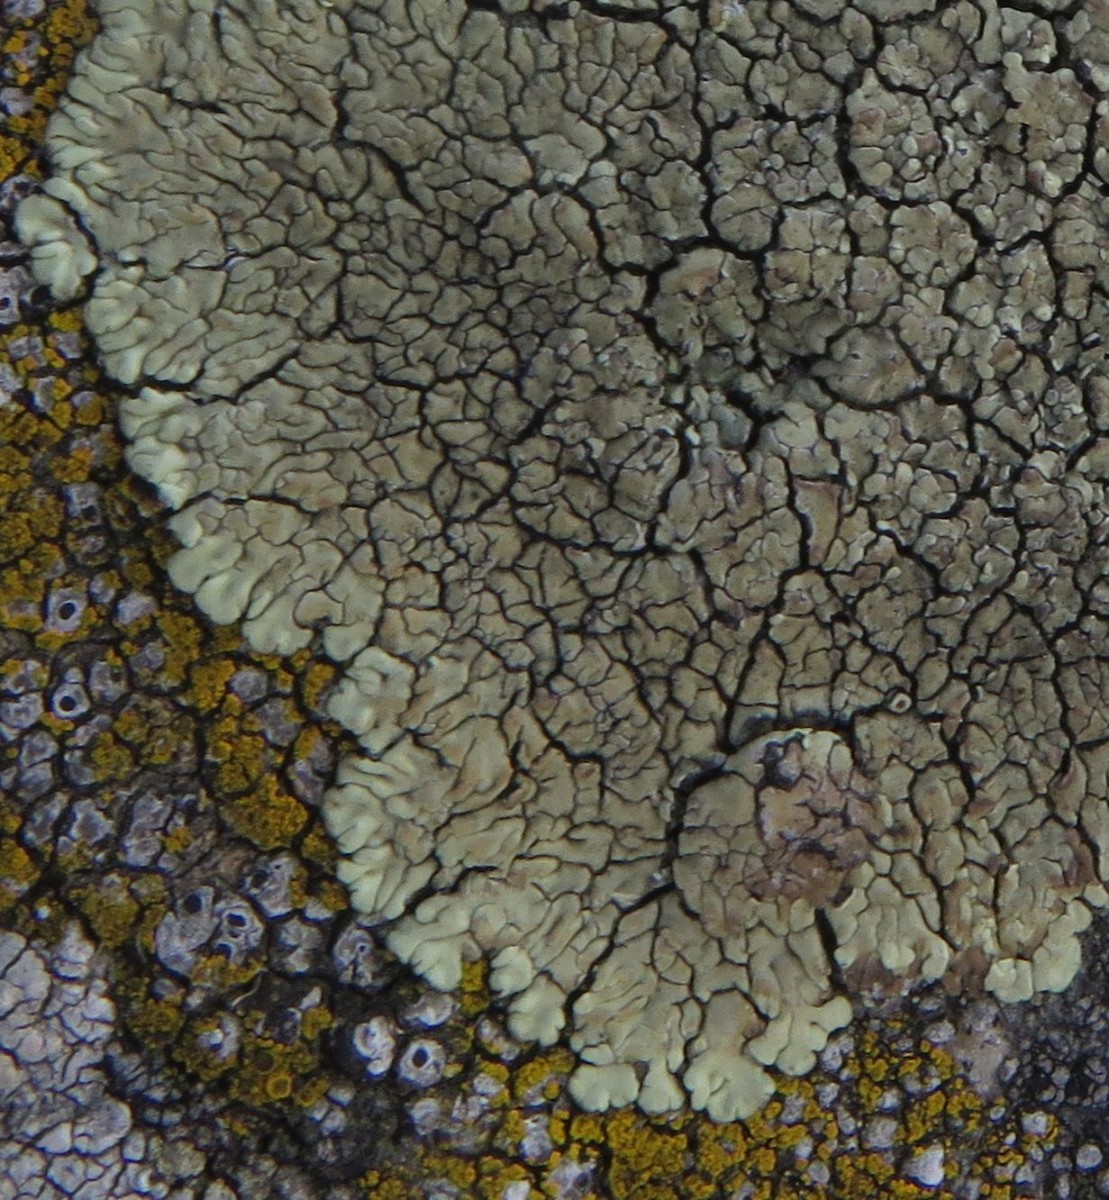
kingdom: Fungi
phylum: Ascomycota
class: Lecanoromycetes
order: Lecanorales
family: Lecanoraceae
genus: Protoparmeliopsis
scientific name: Protoparmeliopsis muralis
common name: randfliget kantskivelav
